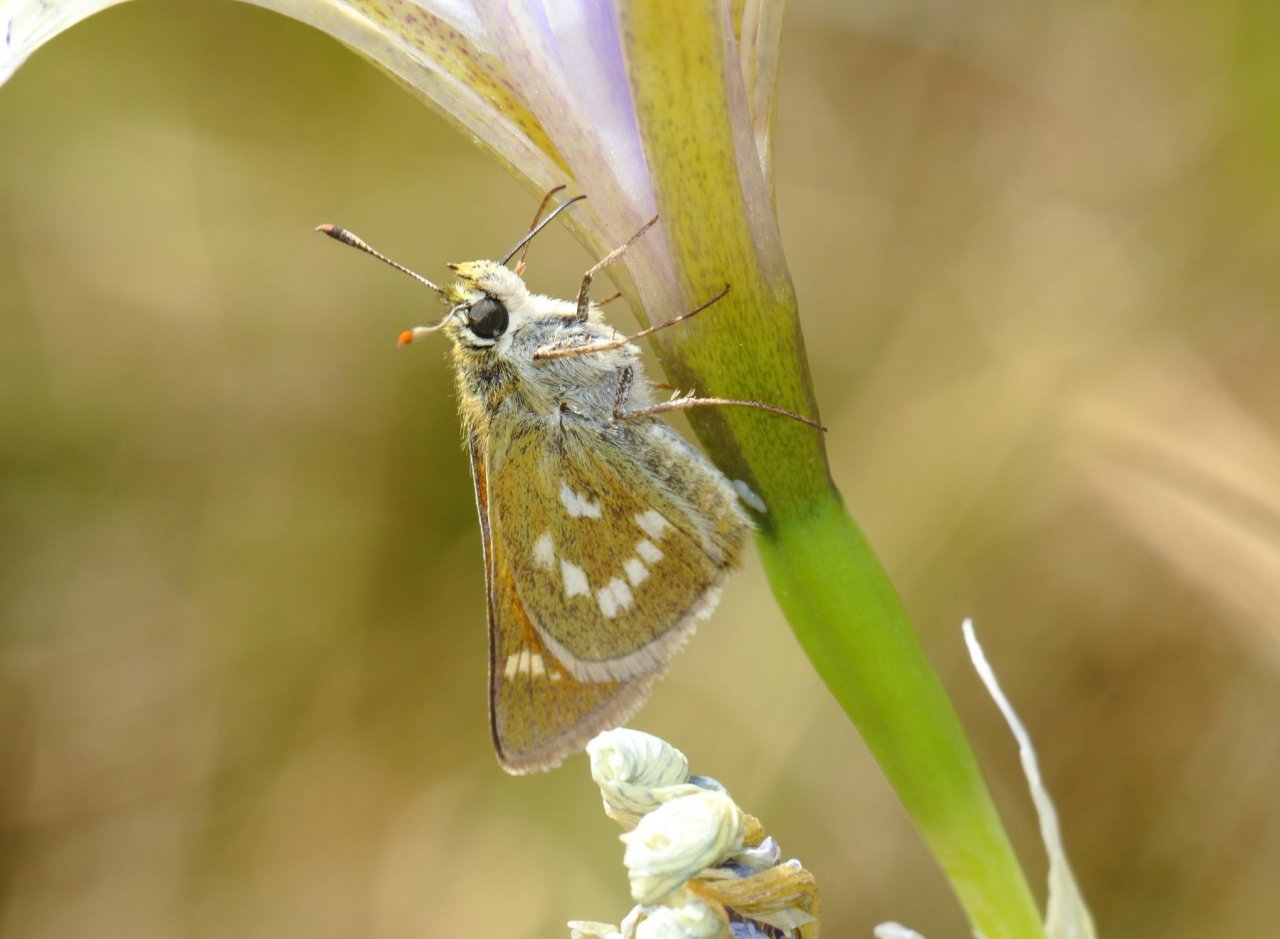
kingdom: Animalia
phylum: Arthropoda
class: Insecta
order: Lepidoptera
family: Hesperiidae
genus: Polites
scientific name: Polites mystic
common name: Sonoran Skipper
